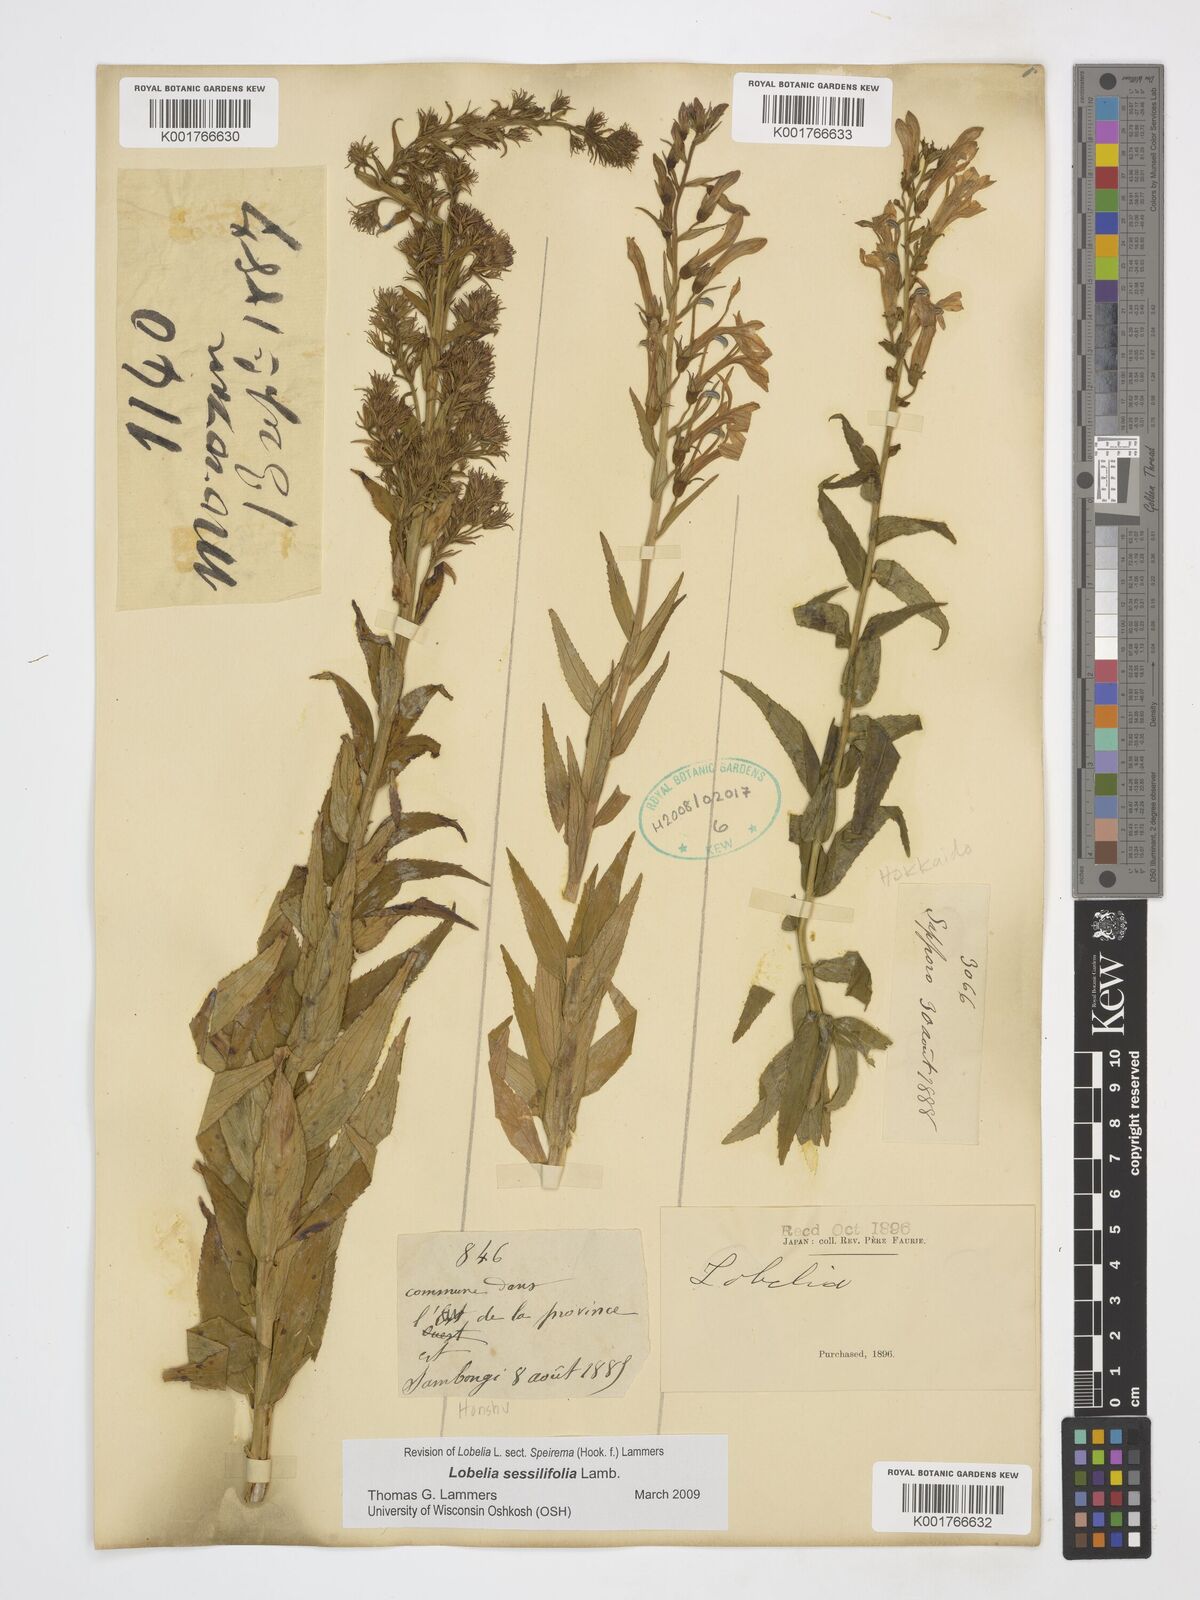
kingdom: Plantae
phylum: Tracheophyta
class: Magnoliopsida
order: Asterales
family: Campanulaceae
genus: Lobelia
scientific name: Lobelia sessilifolia
